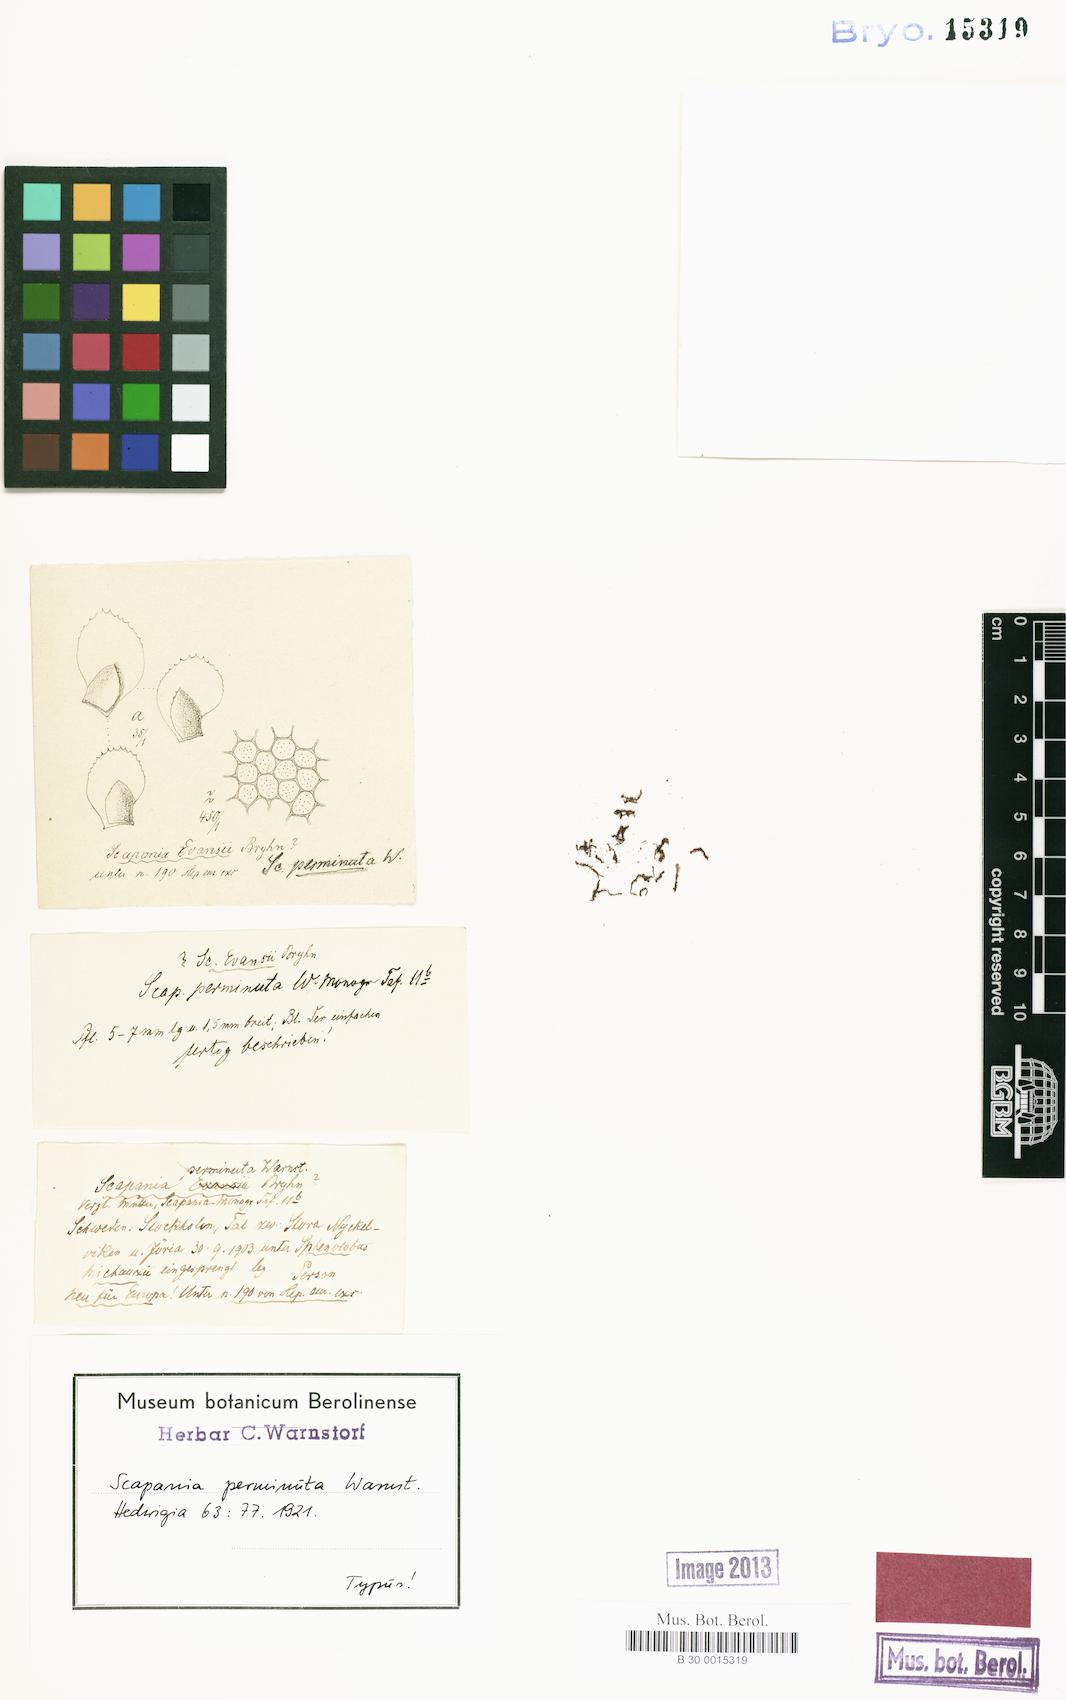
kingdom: Plantae
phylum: Marchantiophyta
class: Jungermanniopsida
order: Jungermanniales
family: Scapaniaceae
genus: Scapania
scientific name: Scapania nemorea
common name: Grove earwort
